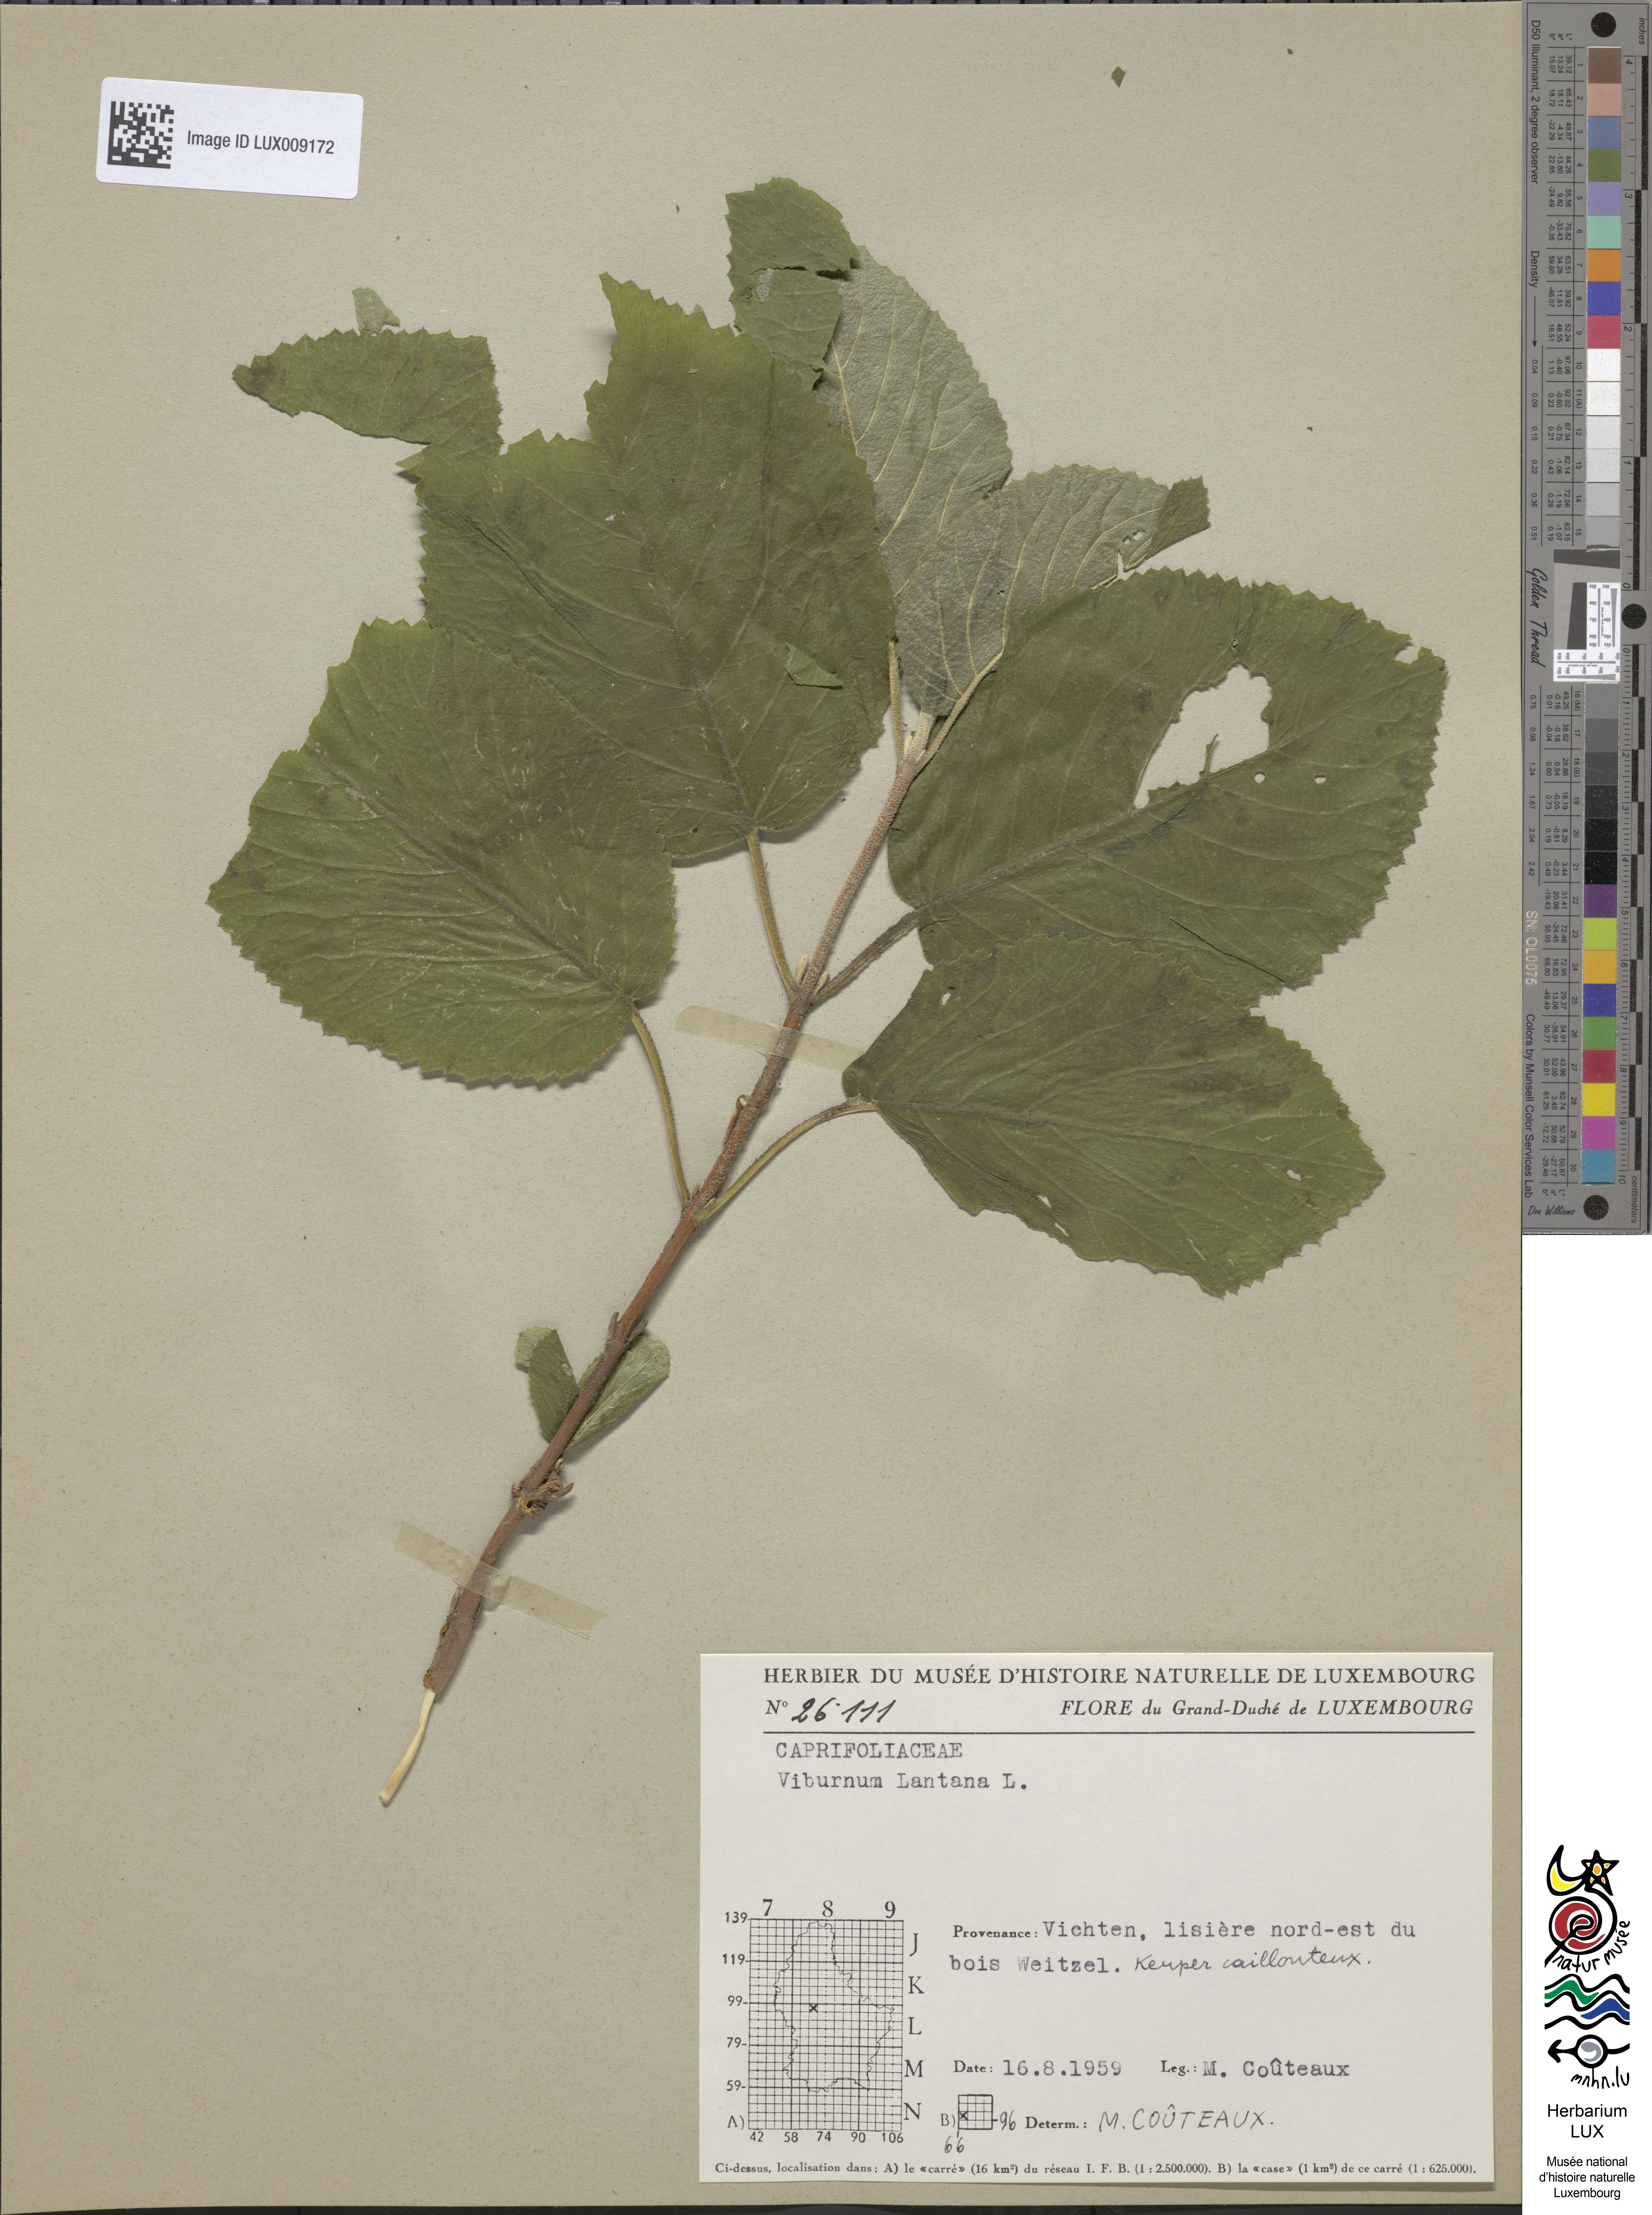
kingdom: Plantae
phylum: Tracheophyta
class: Magnoliopsida
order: Dipsacales
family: Viburnaceae
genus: Viburnum
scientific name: Viburnum lantana
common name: Wayfaring tree
